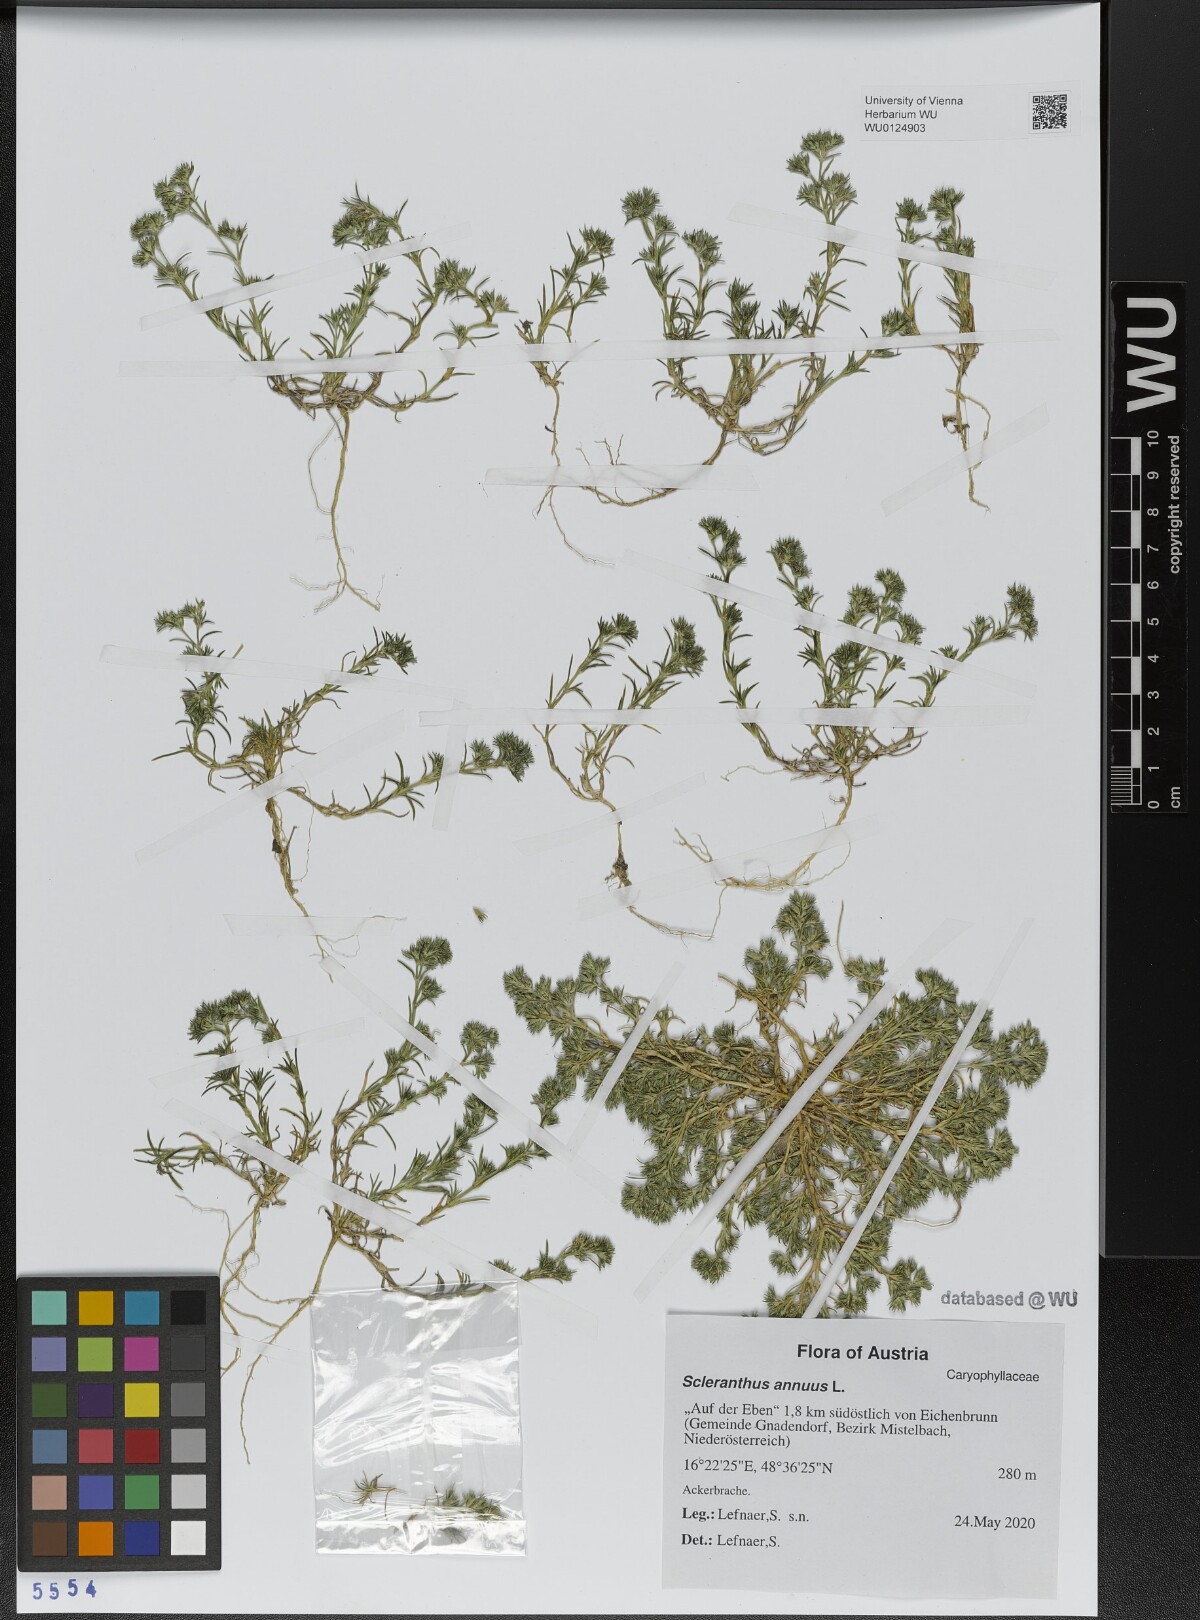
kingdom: Plantae
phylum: Tracheophyta
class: Magnoliopsida
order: Caryophyllales
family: Caryophyllaceae
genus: Scleranthus
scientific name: Scleranthus annuus
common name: Annual knawel
